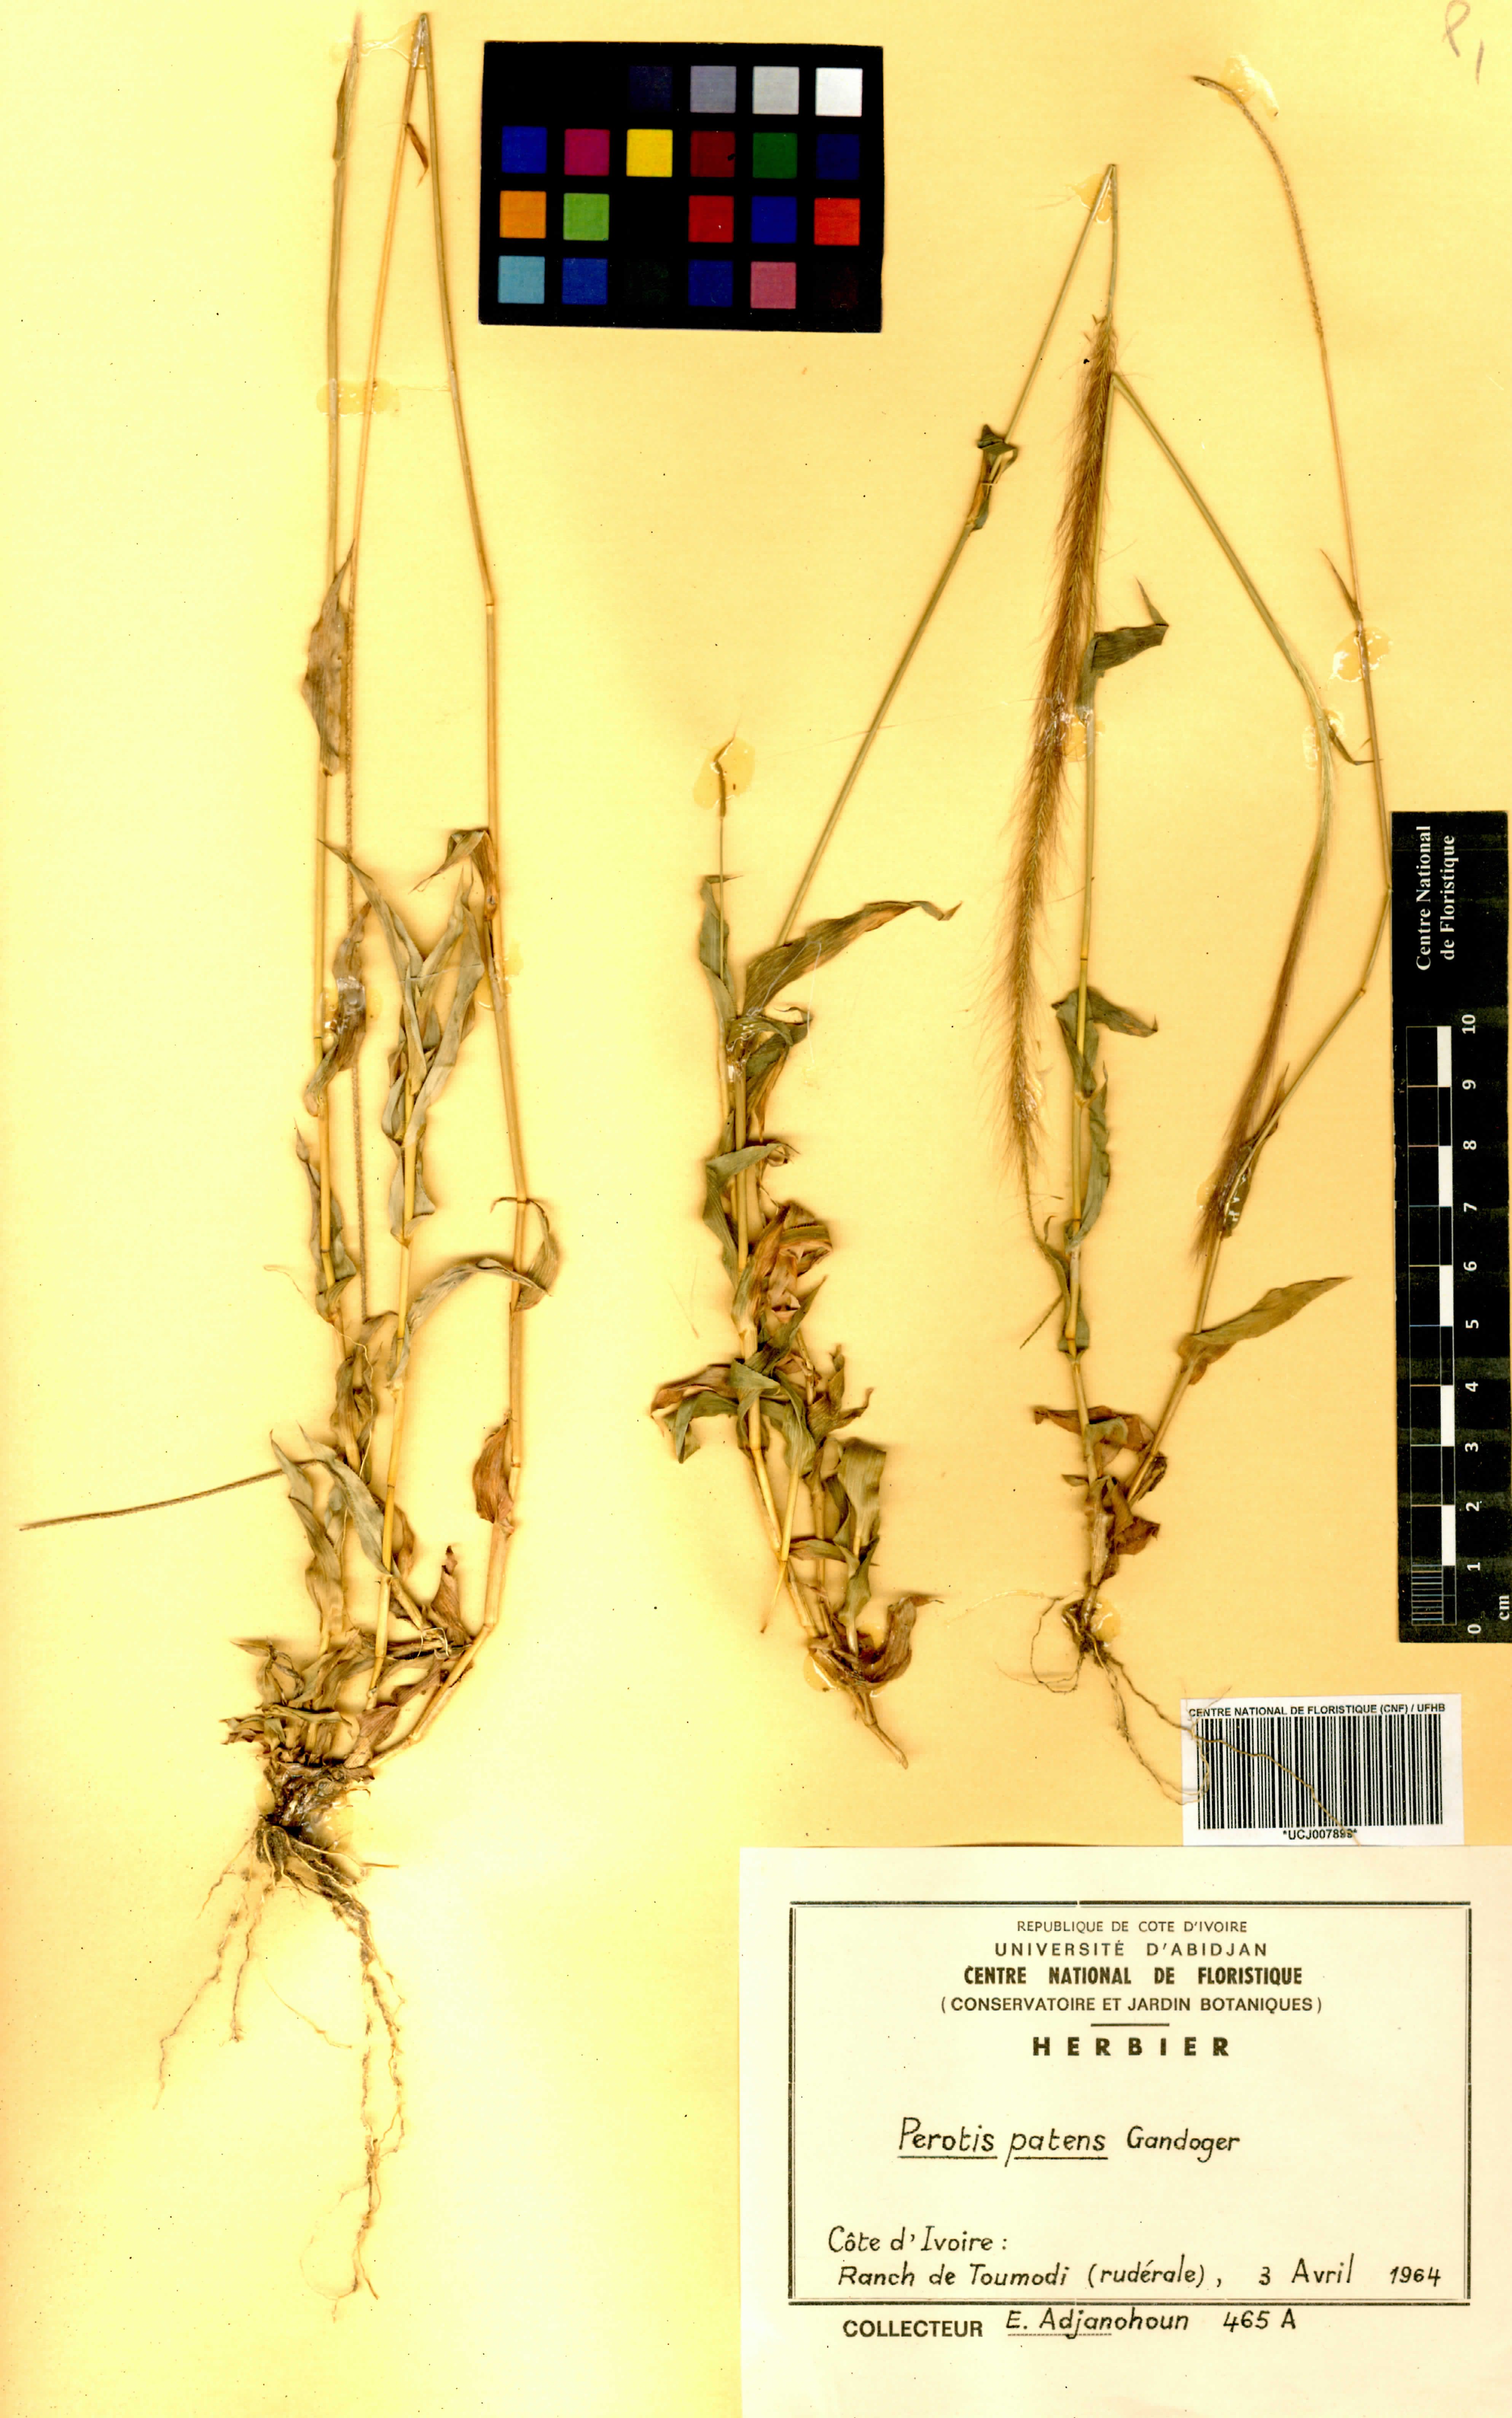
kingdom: Plantae
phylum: Tracheophyta
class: Liliopsida
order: Poales
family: Poaceae
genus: Perotis
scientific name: Perotis patens
